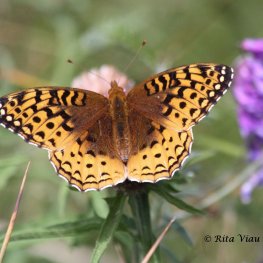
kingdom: Animalia
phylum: Arthropoda
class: Insecta
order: Lepidoptera
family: Nymphalidae
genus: Speyeria
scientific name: Speyeria cybele
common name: Great Spangled Fritillary
